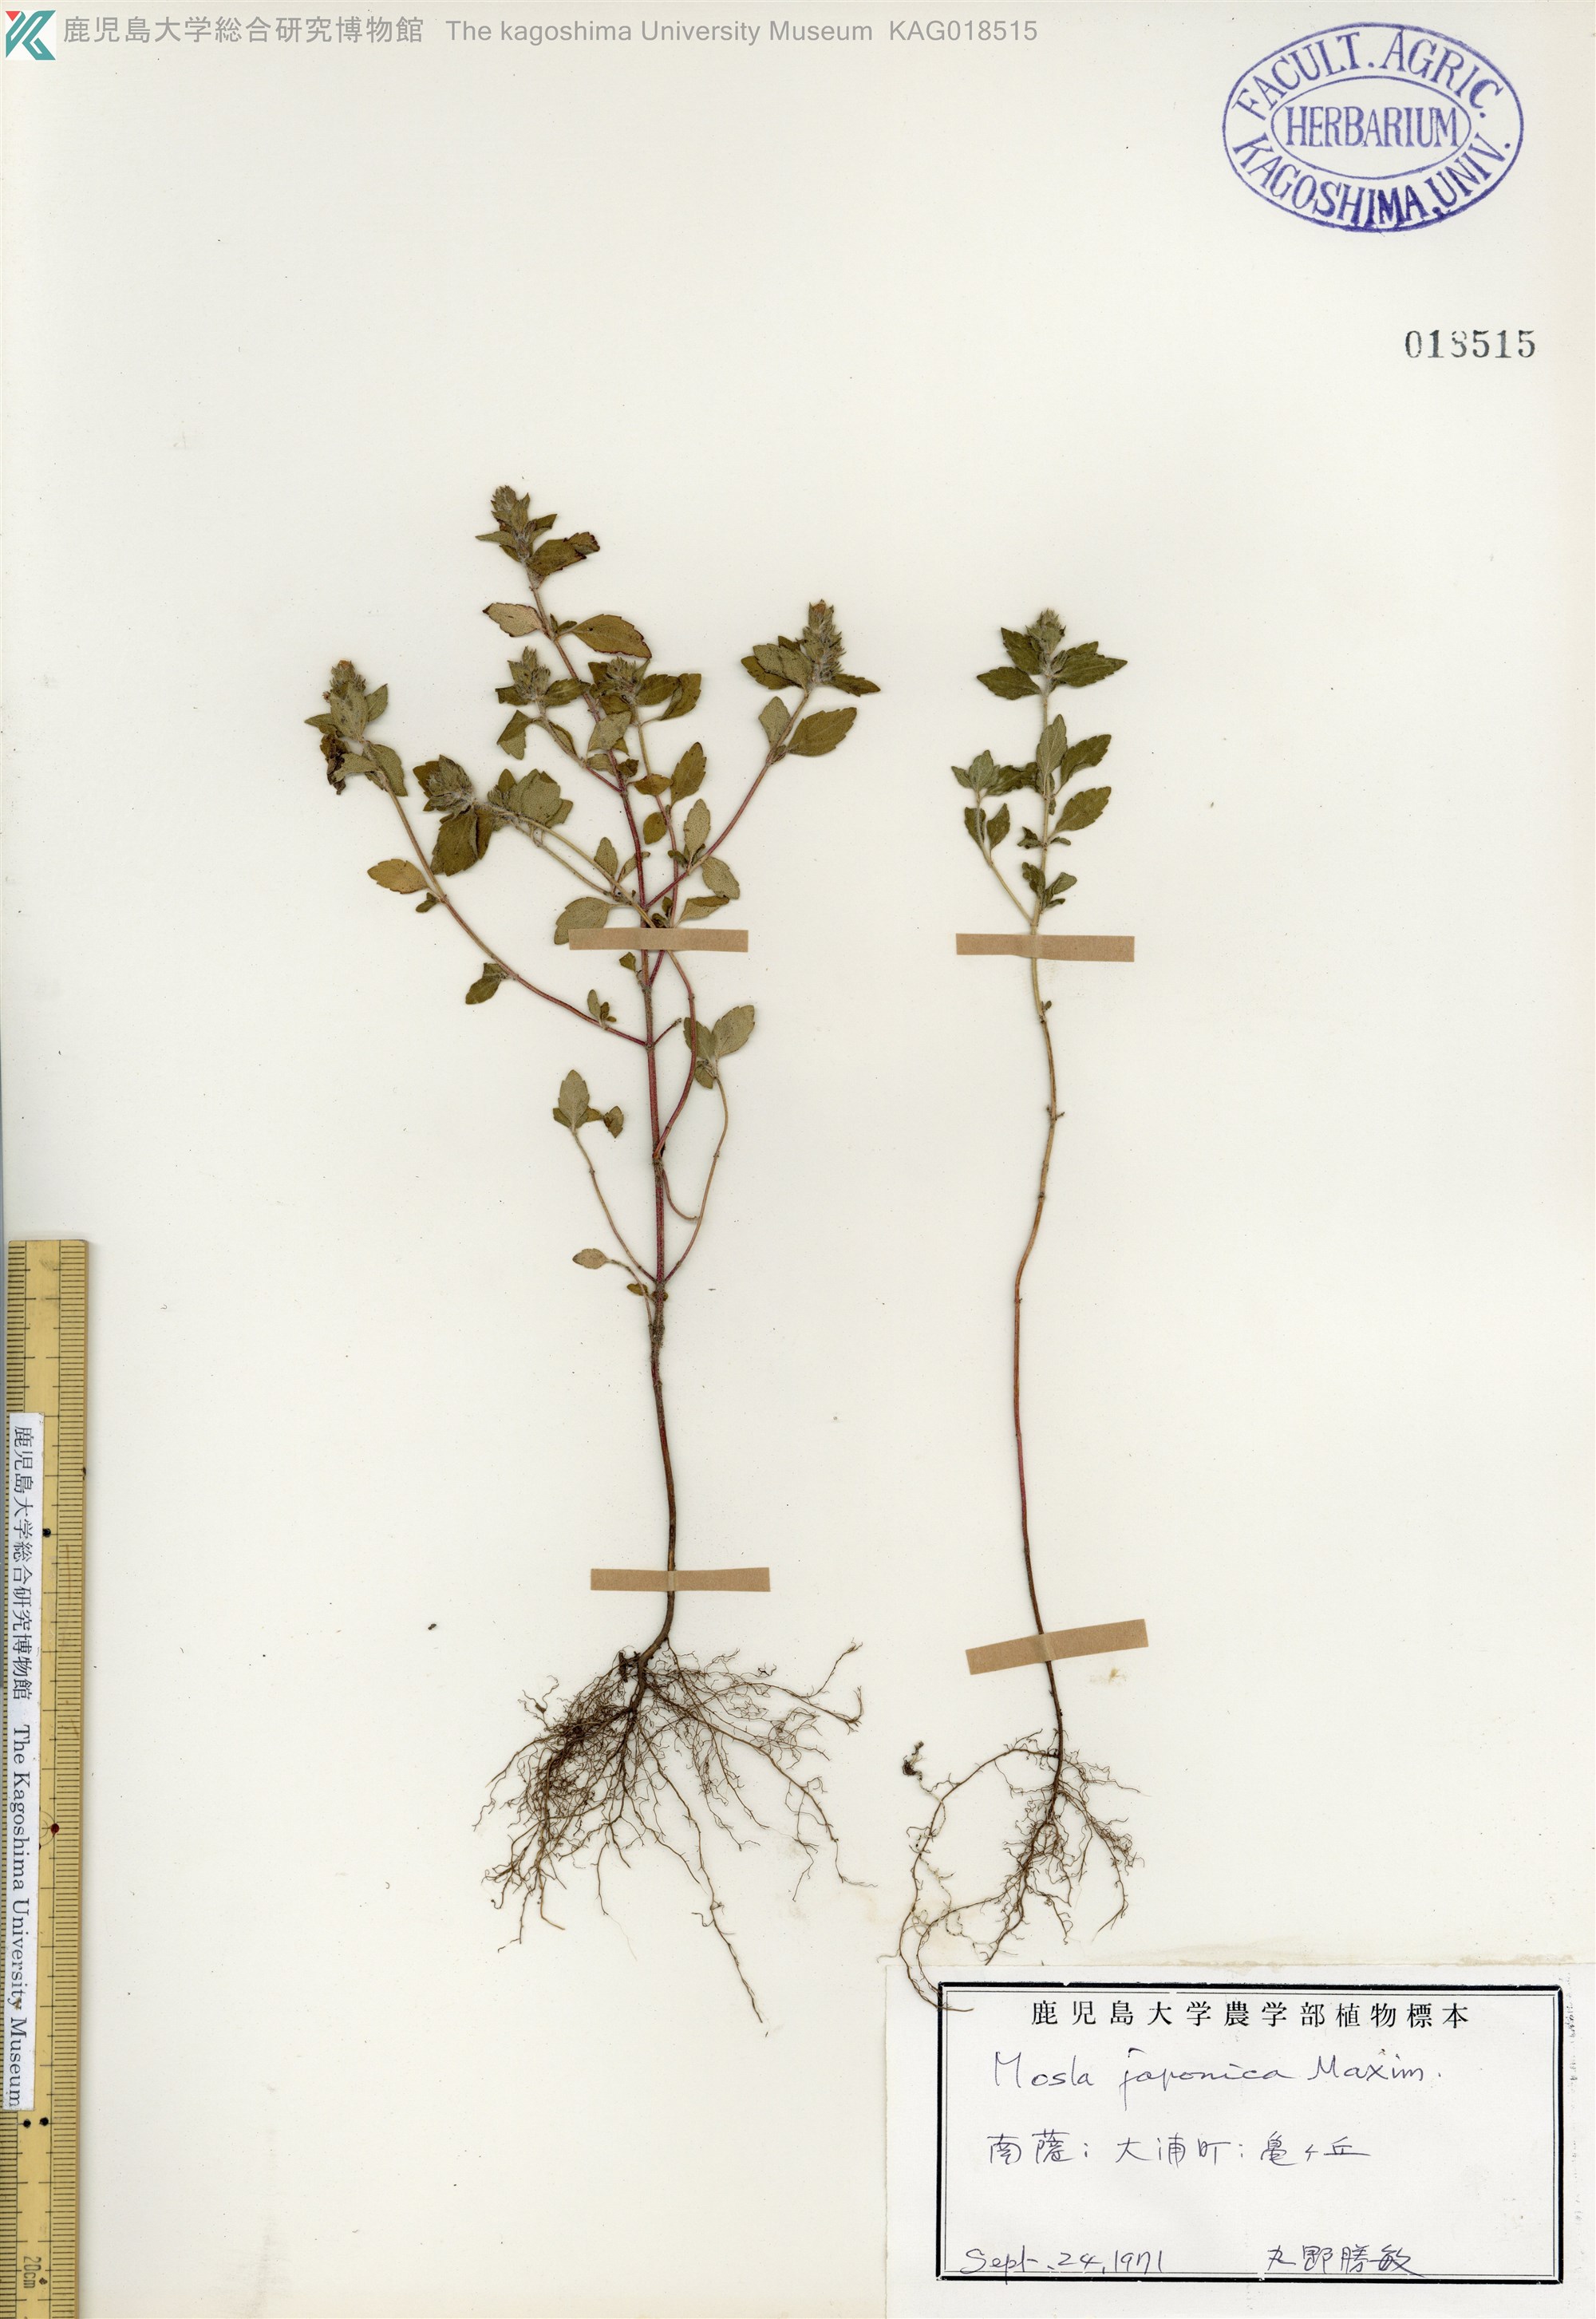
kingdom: Plantae
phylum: Tracheophyta
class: Magnoliopsida
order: Lamiales
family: Lamiaceae
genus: Mosla
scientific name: Mosla japonica
